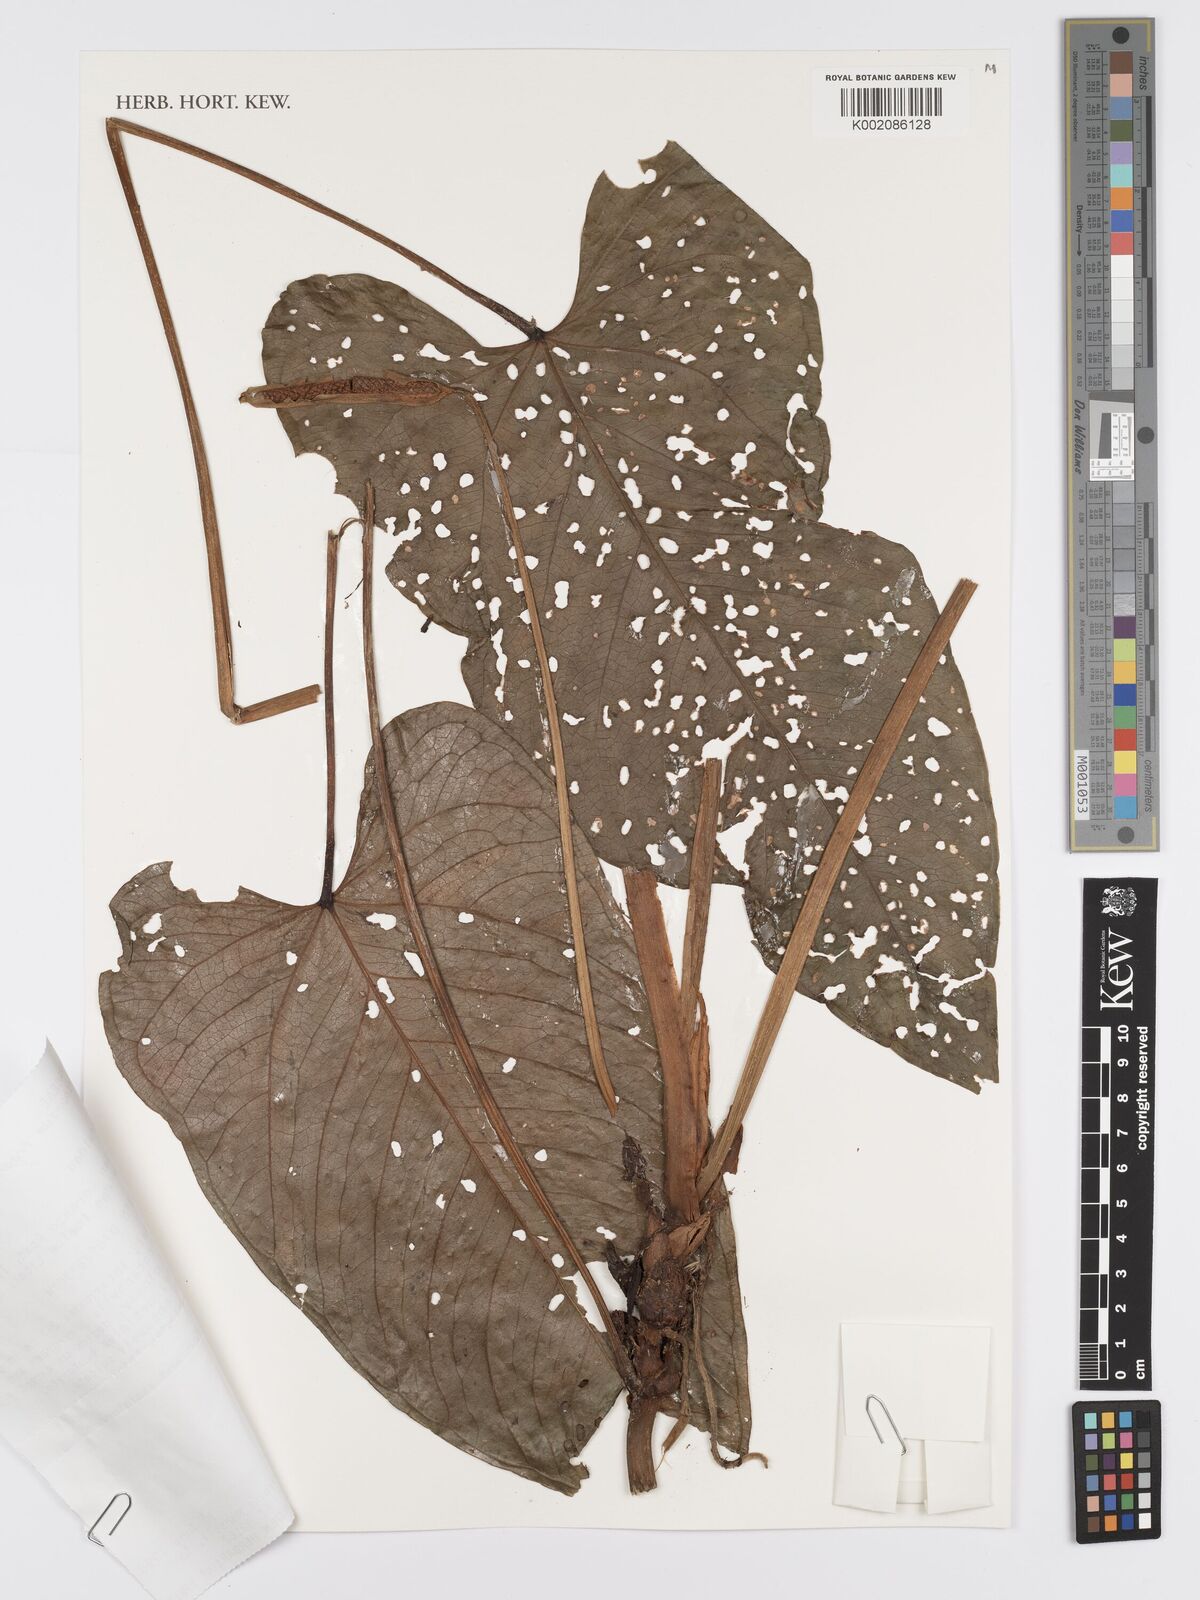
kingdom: Plantae
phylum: Tracheophyta
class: Liliopsida
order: Alismatales
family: Araceae
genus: Anthurium
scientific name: Anthurium fragrans
